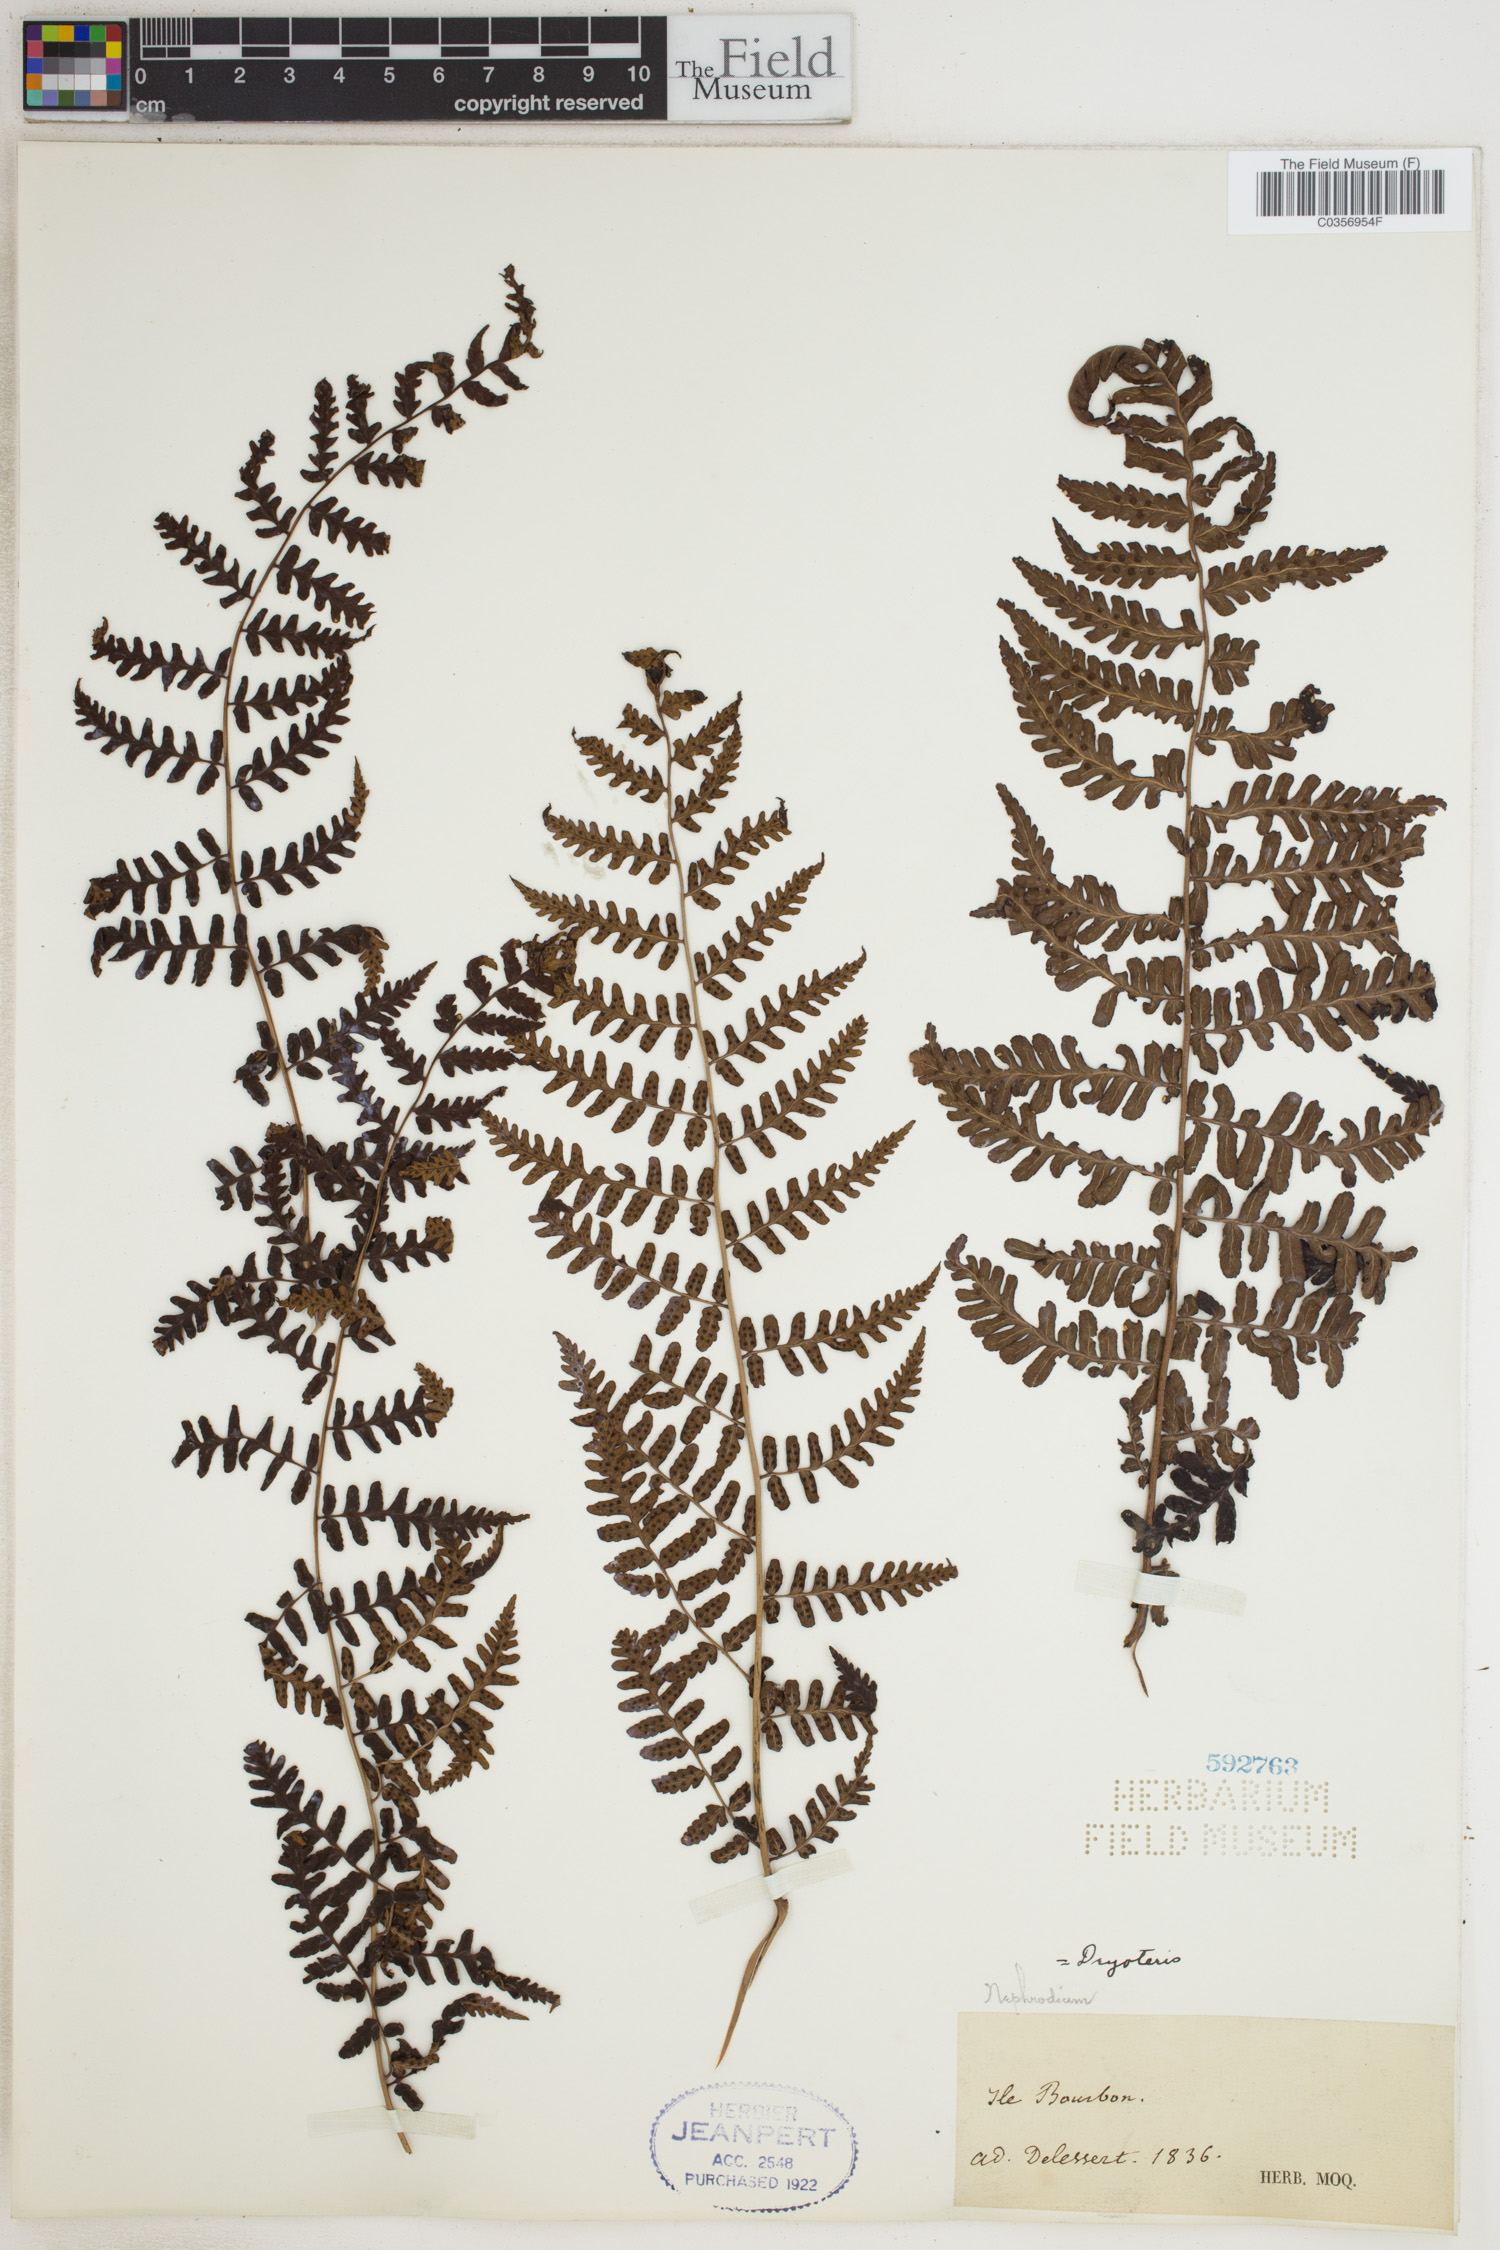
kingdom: Plantae
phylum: Tracheophyta
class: Polypodiopsida
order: Polypodiales
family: Dryopteridaceae
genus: Dryopteris
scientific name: Dryopteris
